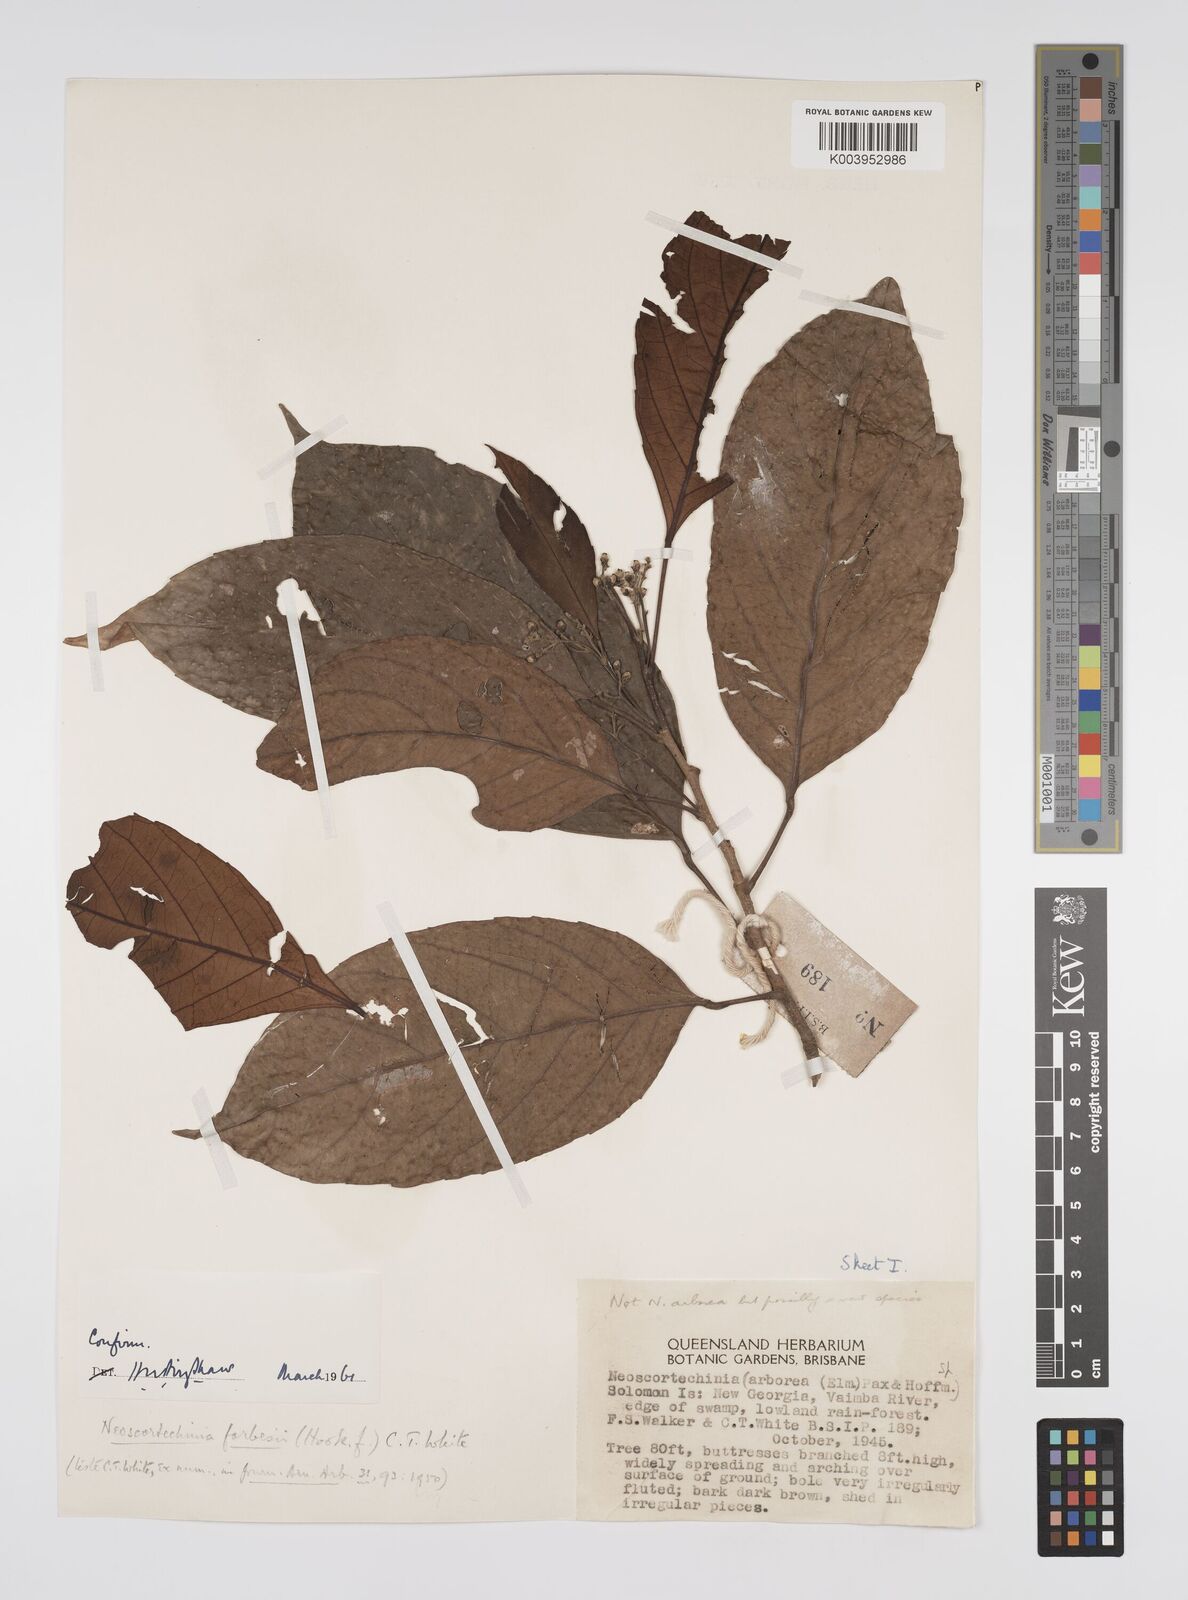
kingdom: Plantae
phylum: Tracheophyta
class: Magnoliopsida
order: Malpighiales
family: Euphorbiaceae
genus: Neoscortechinia
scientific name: Neoscortechinia forbesii
